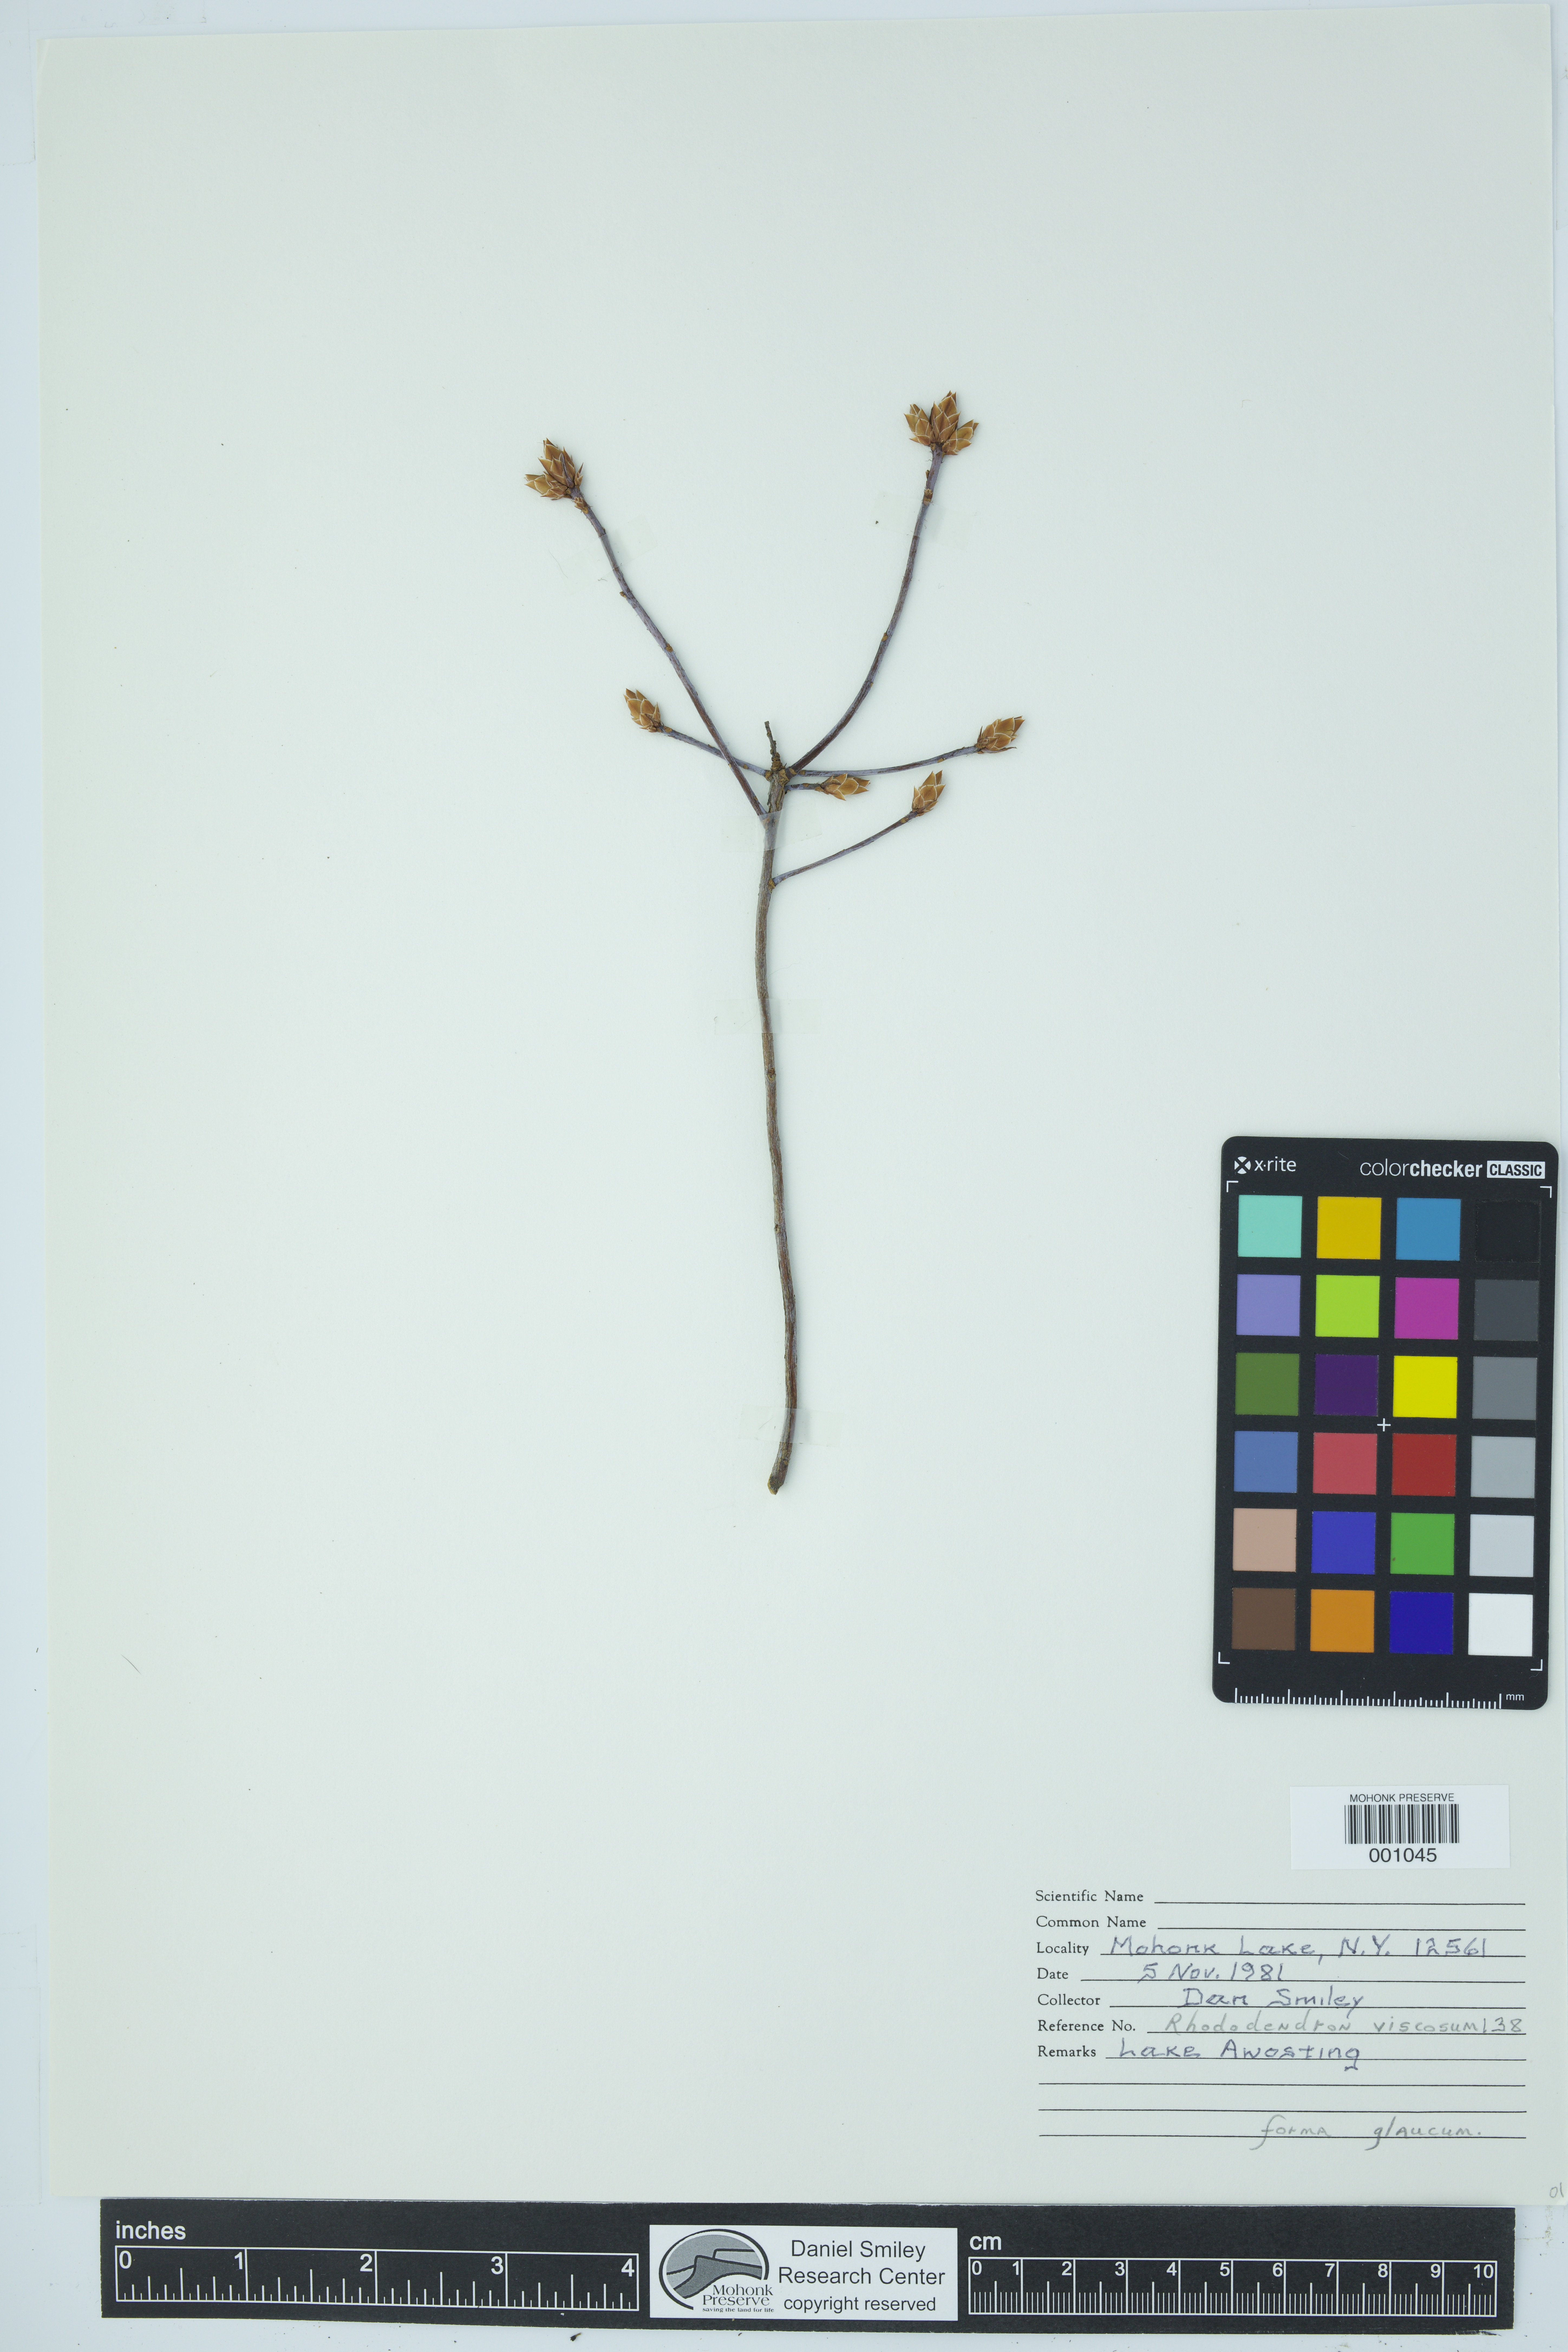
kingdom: Plantae
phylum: Tracheophyta
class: Magnoliopsida
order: Ericales
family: Ericaceae
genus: Rhododendron
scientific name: Rhododendron viscosum
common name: Clammy azalea
